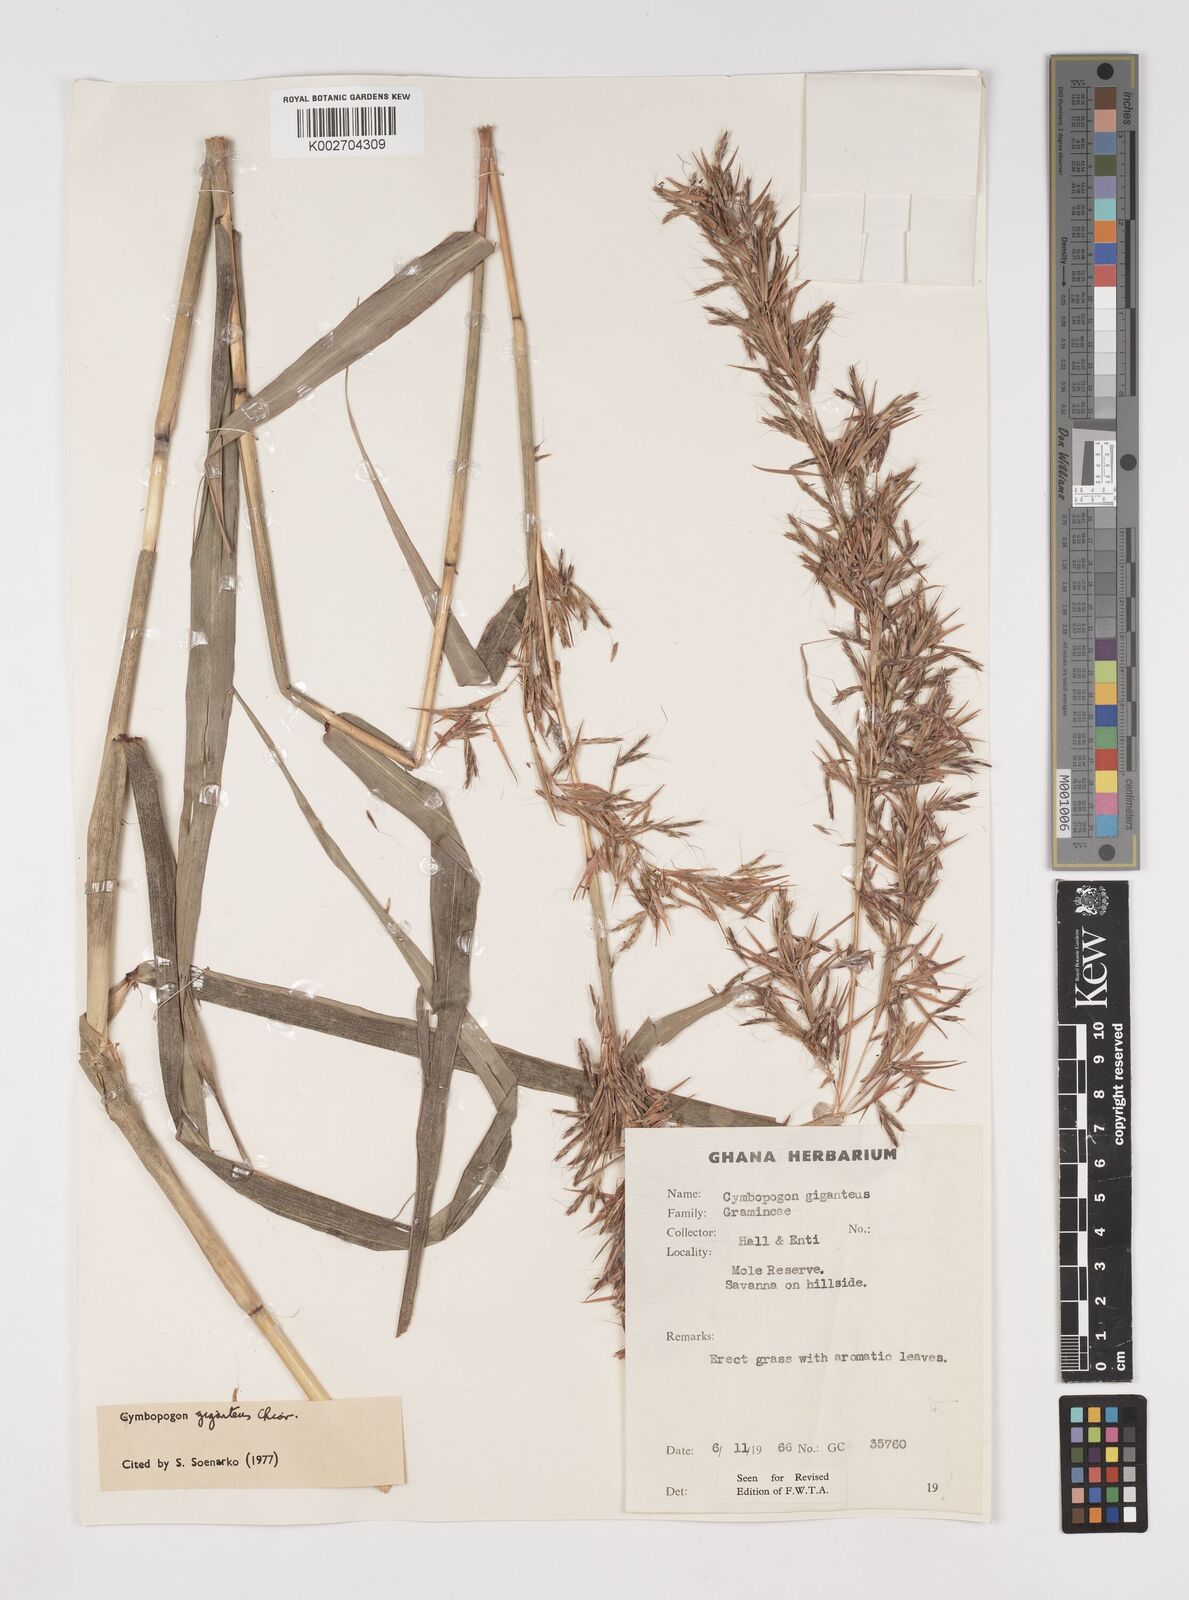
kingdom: Plantae
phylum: Tracheophyta
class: Liliopsida
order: Poales
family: Poaceae
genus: Cymbopogon
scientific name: Cymbopogon giganteus
